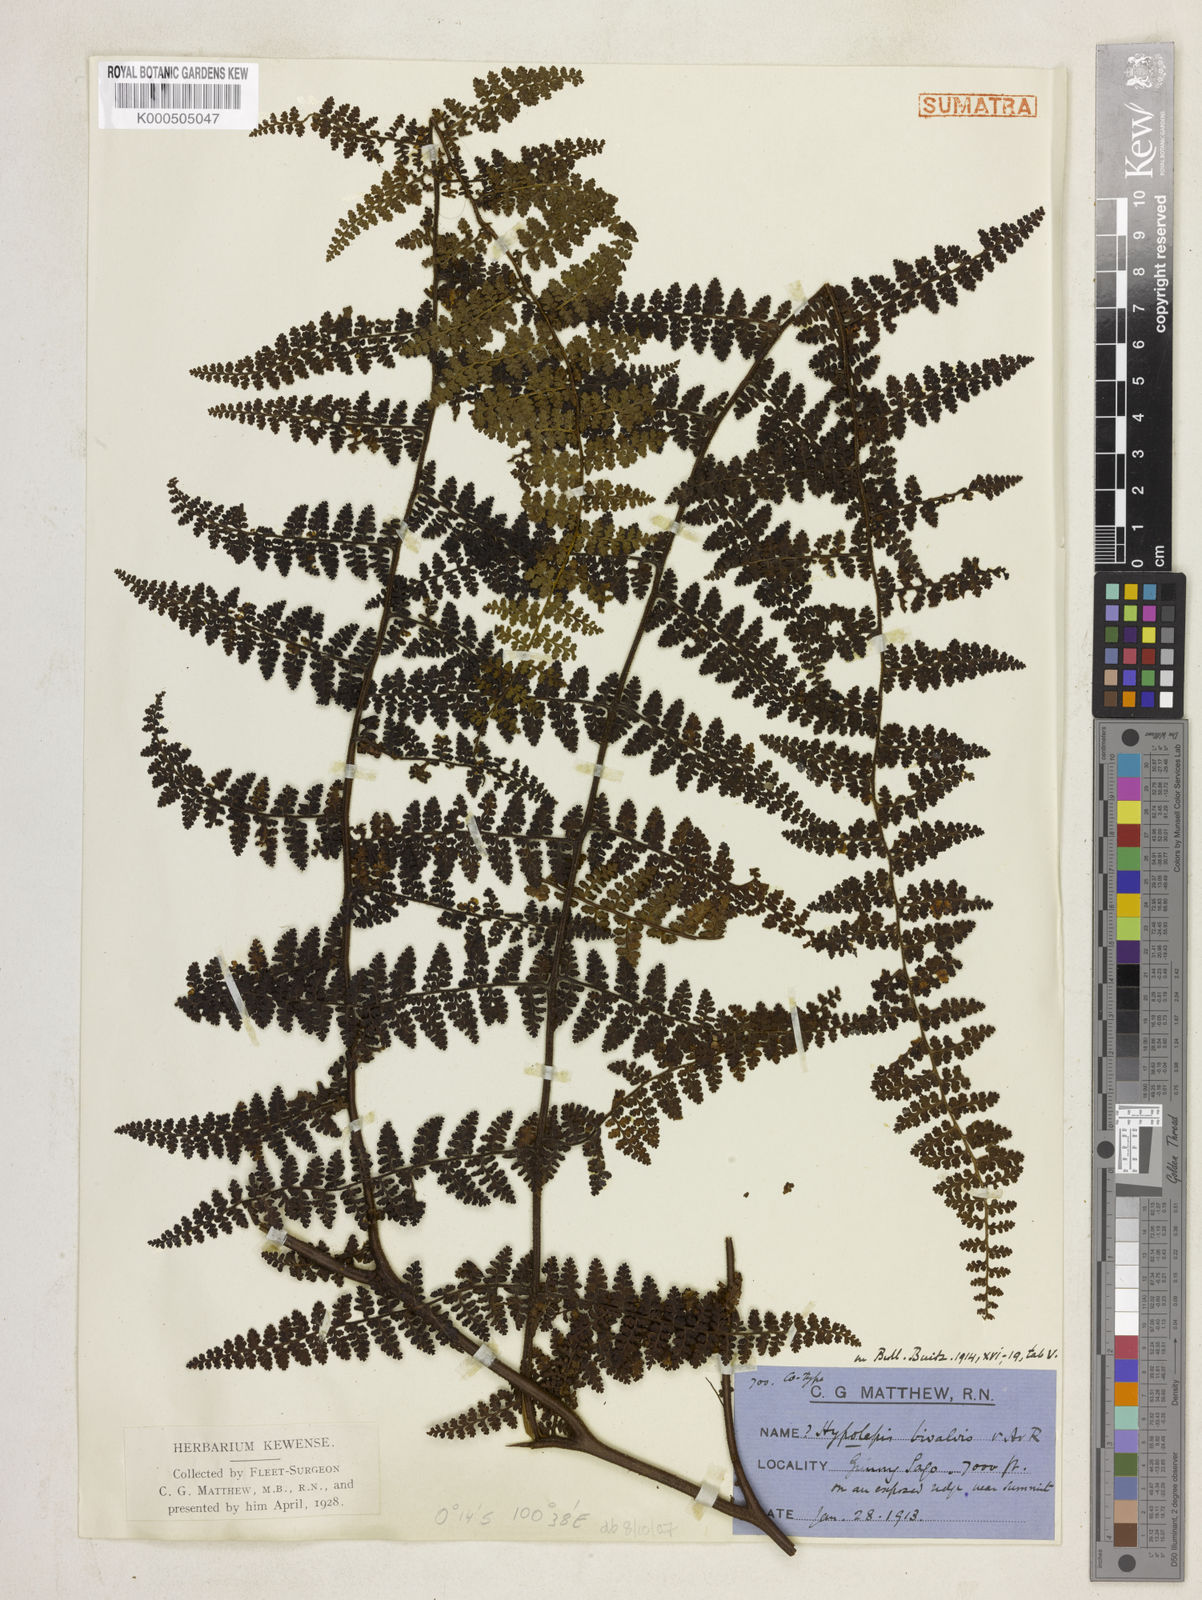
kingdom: Plantae
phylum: Tracheophyta
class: Polypodiopsida
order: Polypodiales
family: Dennstaedtiaceae
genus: Paesia
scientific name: Paesia elmeri
